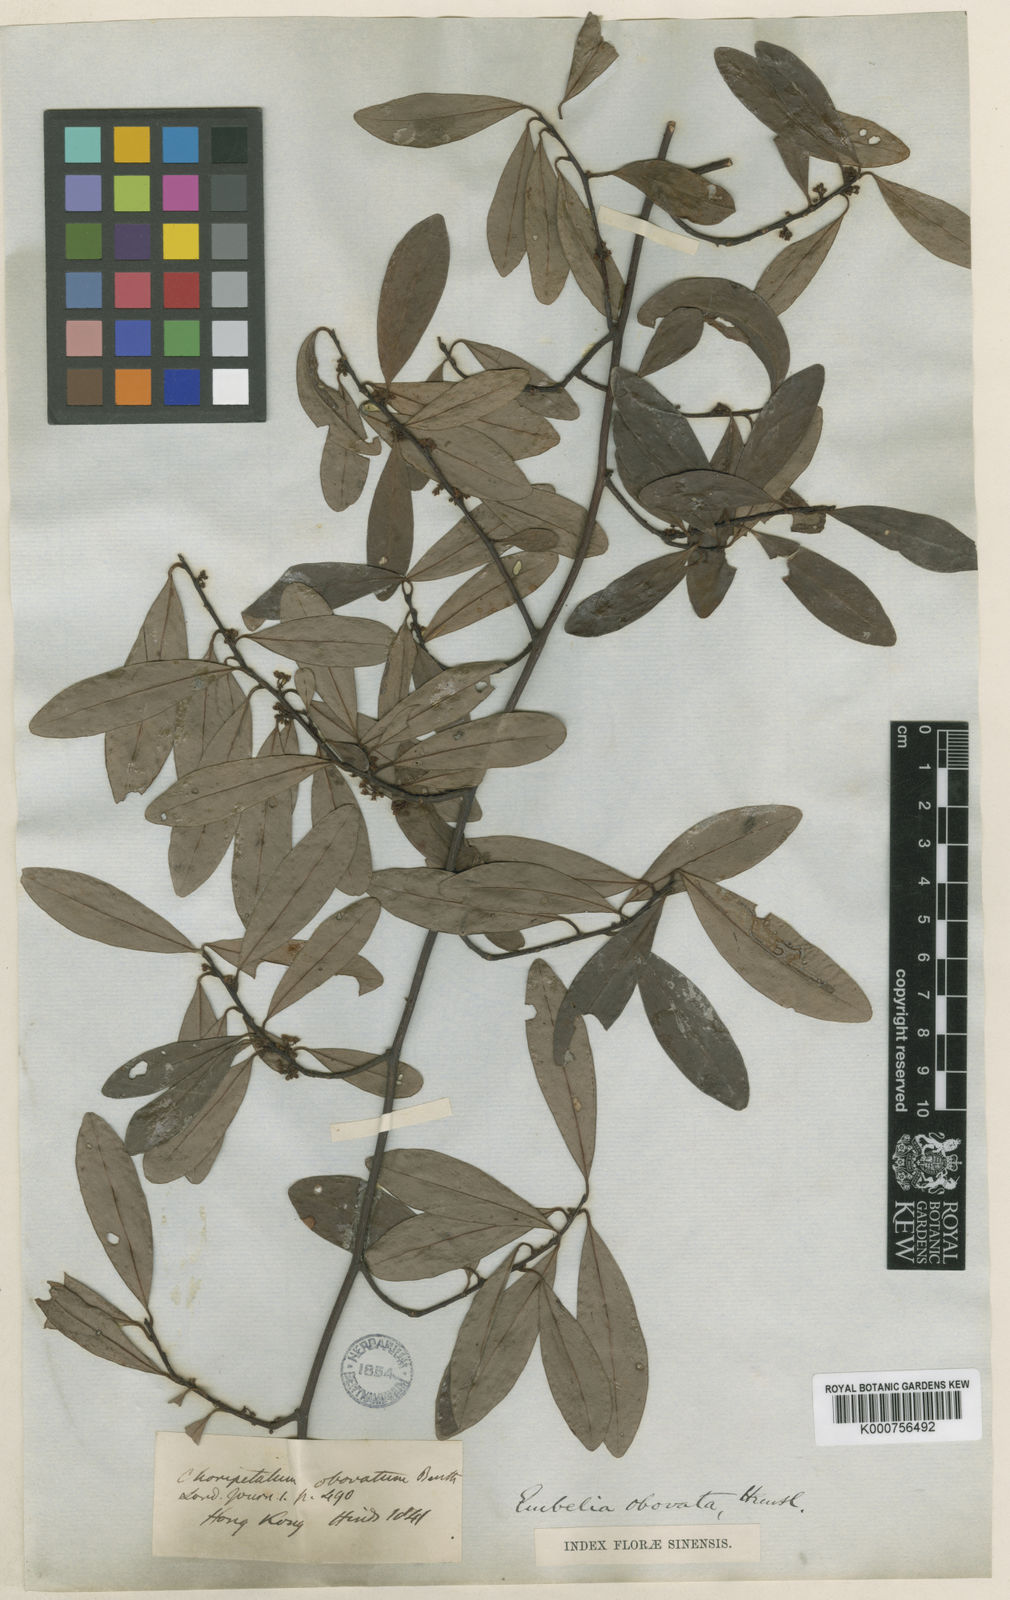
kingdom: Plantae
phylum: Tracheophyta
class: Magnoliopsida
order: Ericales
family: Primulaceae
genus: Embelia
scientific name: Embelia
